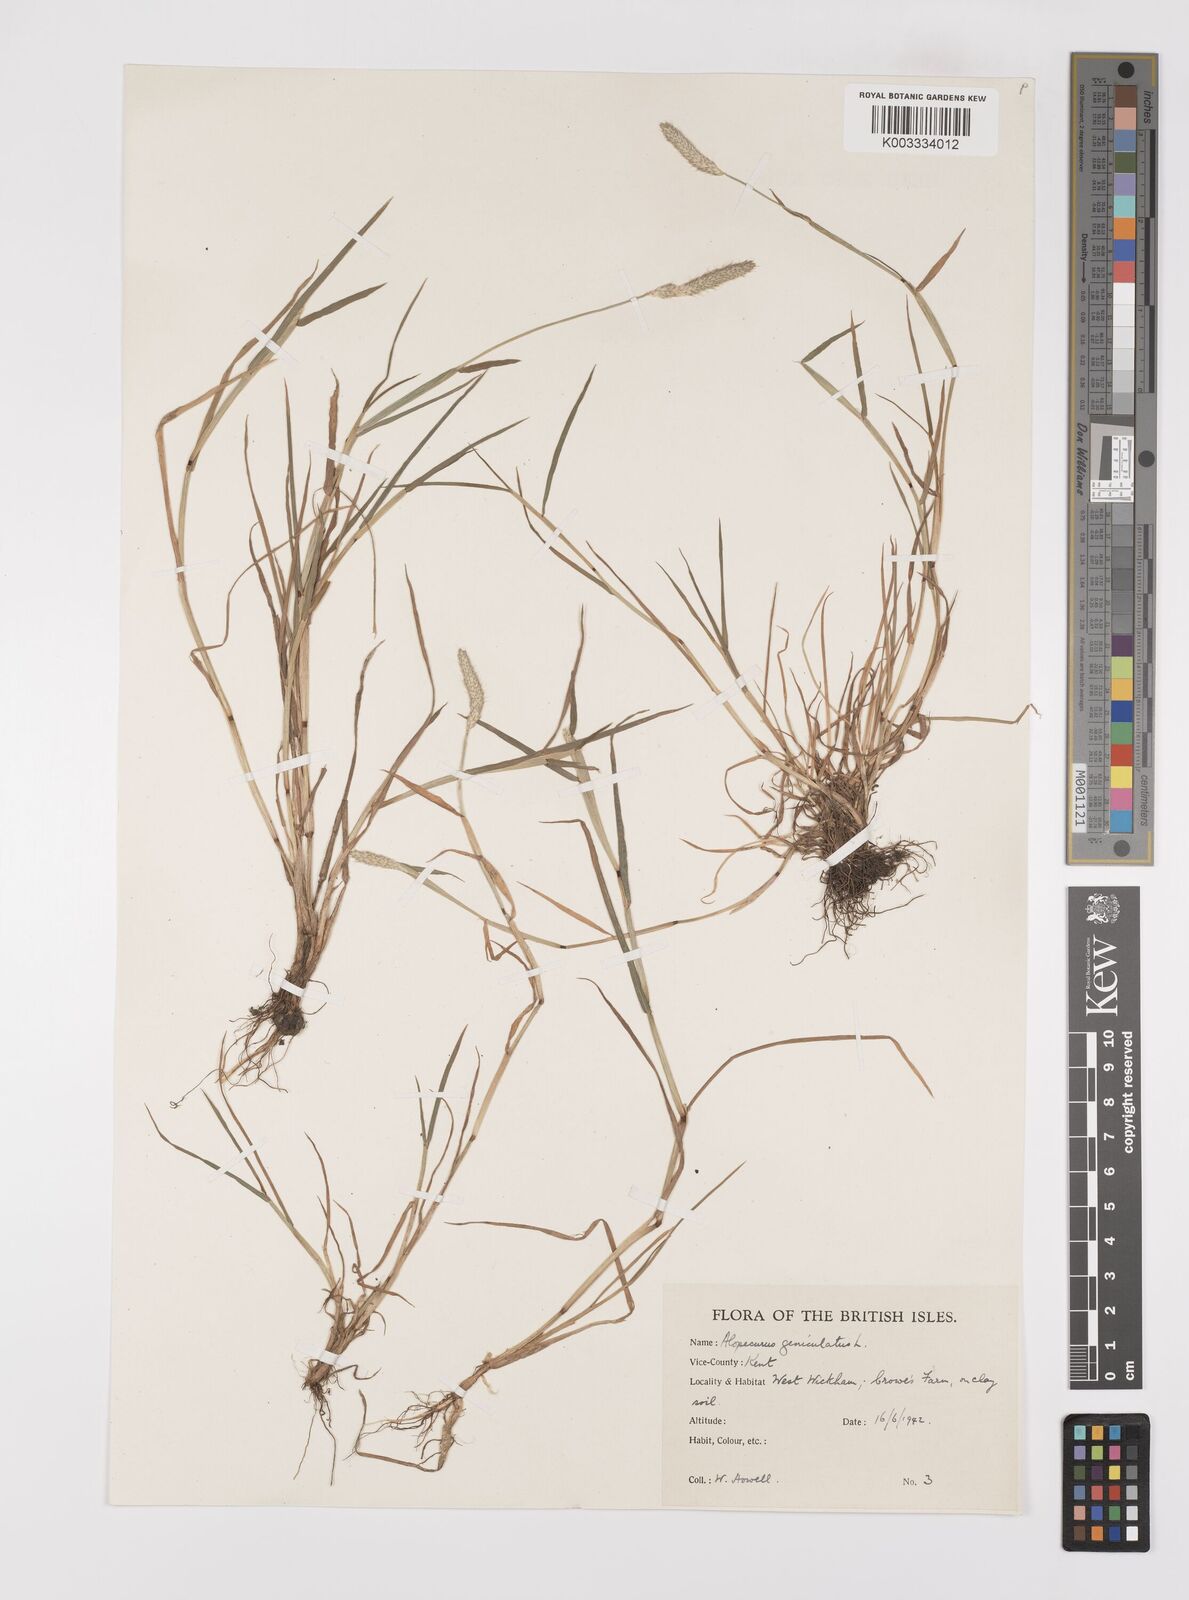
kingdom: Plantae
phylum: Tracheophyta
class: Liliopsida
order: Poales
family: Poaceae
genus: Alopecurus
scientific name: Alopecurus geniculatus
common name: Water foxtail
